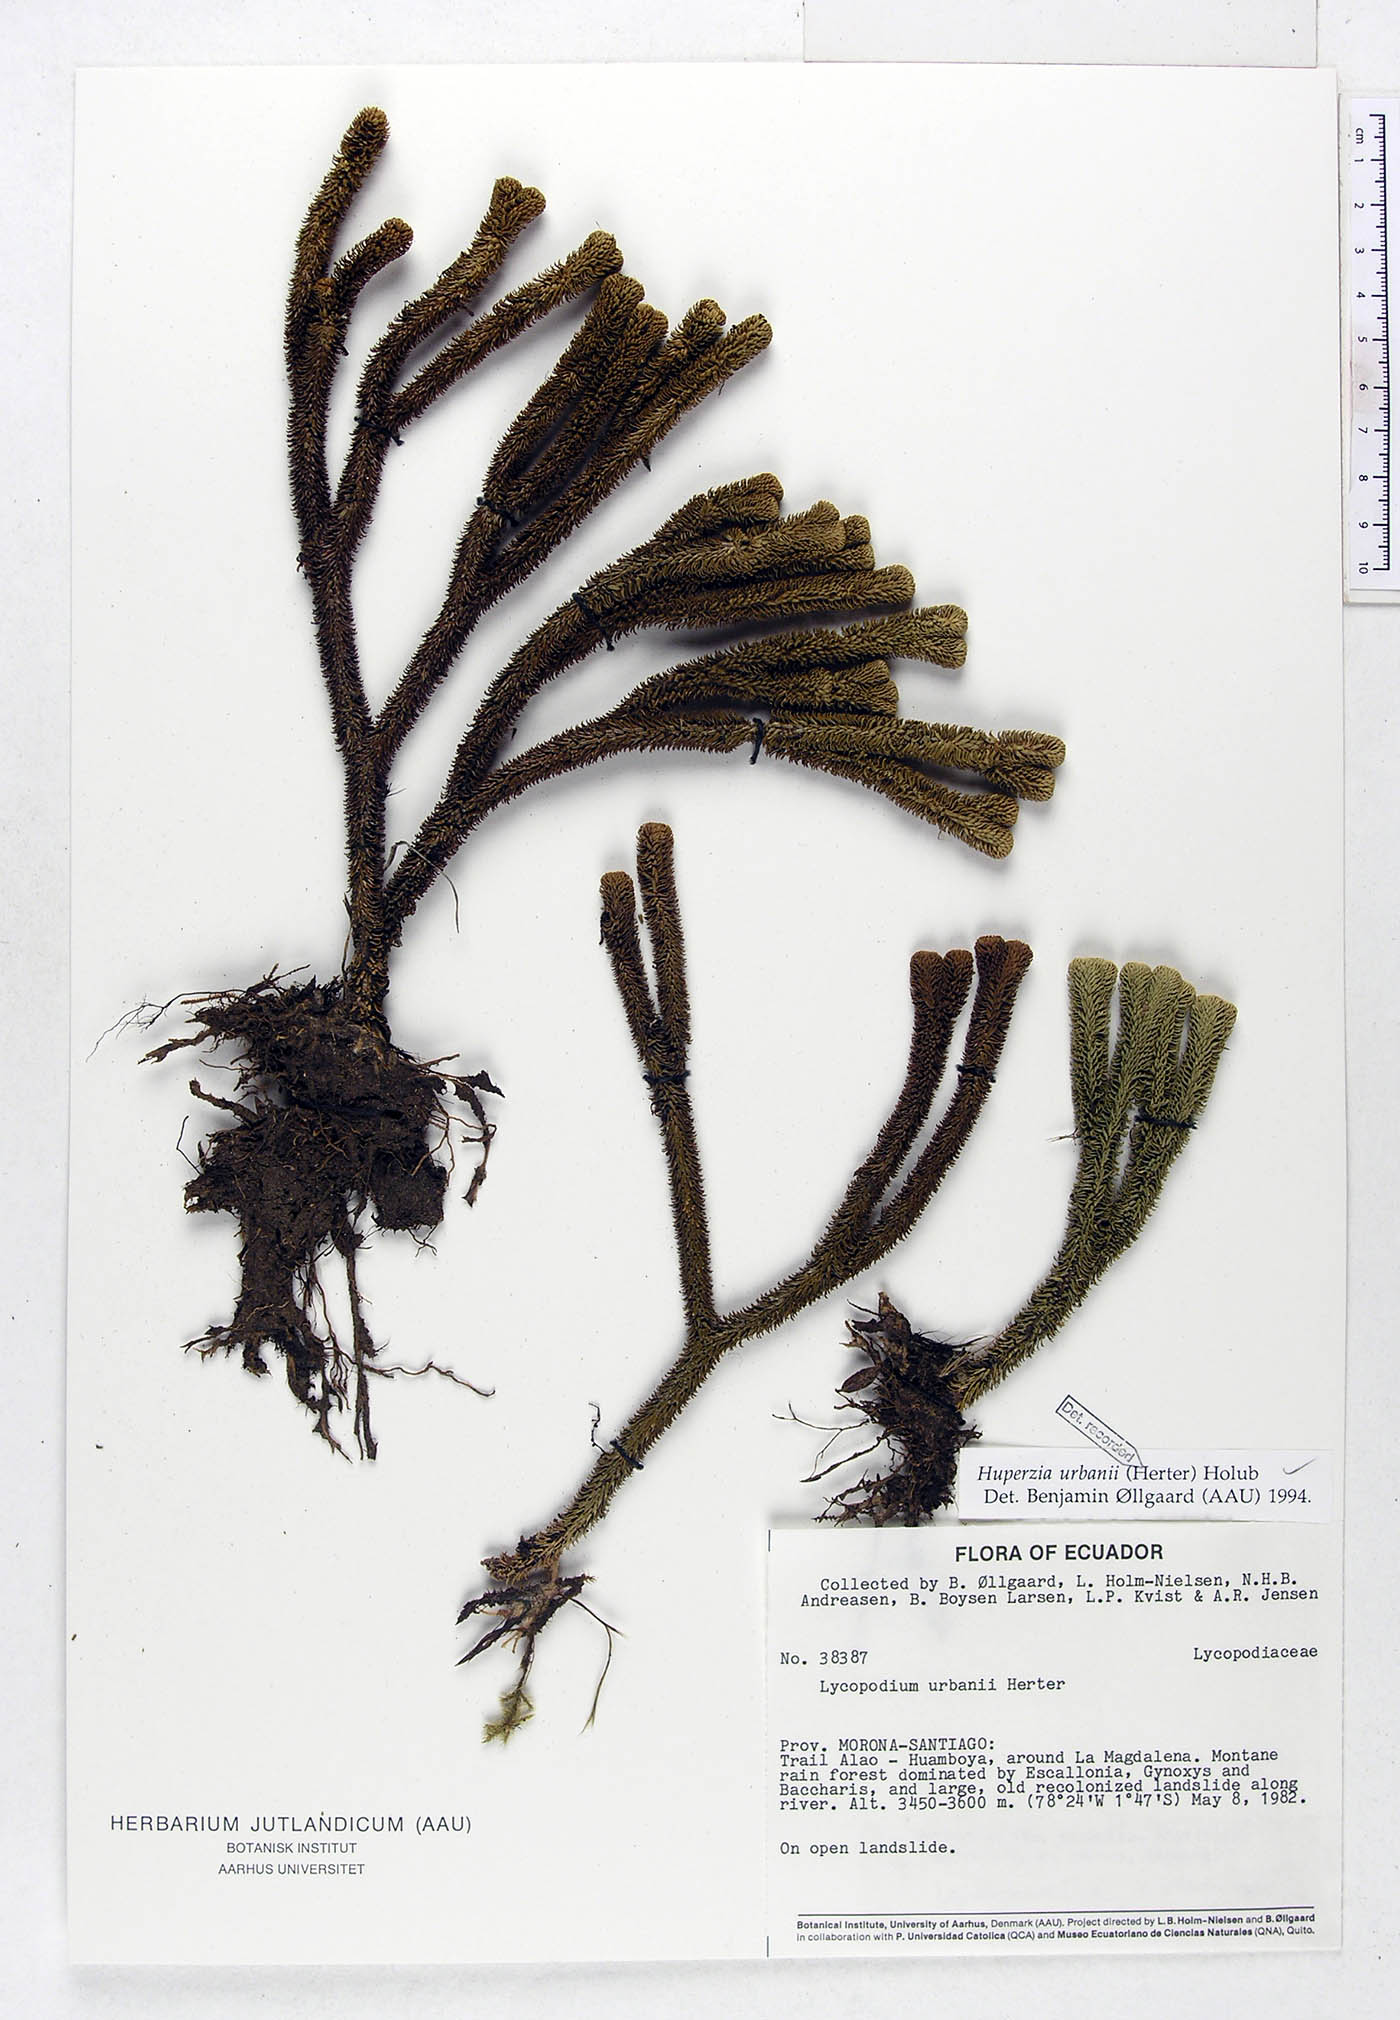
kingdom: Plantae
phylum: Tracheophyta
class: Lycopodiopsida
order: Lycopodiales
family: Lycopodiaceae
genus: Phlegmariurus
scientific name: Phlegmariurus urbanii
